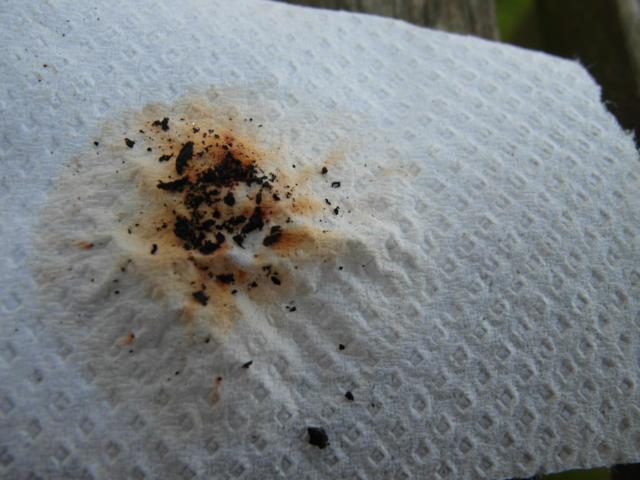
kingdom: Fungi
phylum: Ascomycota
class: Sordariomycetes
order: Xylariales
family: Hypoxylaceae
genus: Hypoxylon
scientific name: Hypoxylon howeanum
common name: halvkugleformet kulbær
